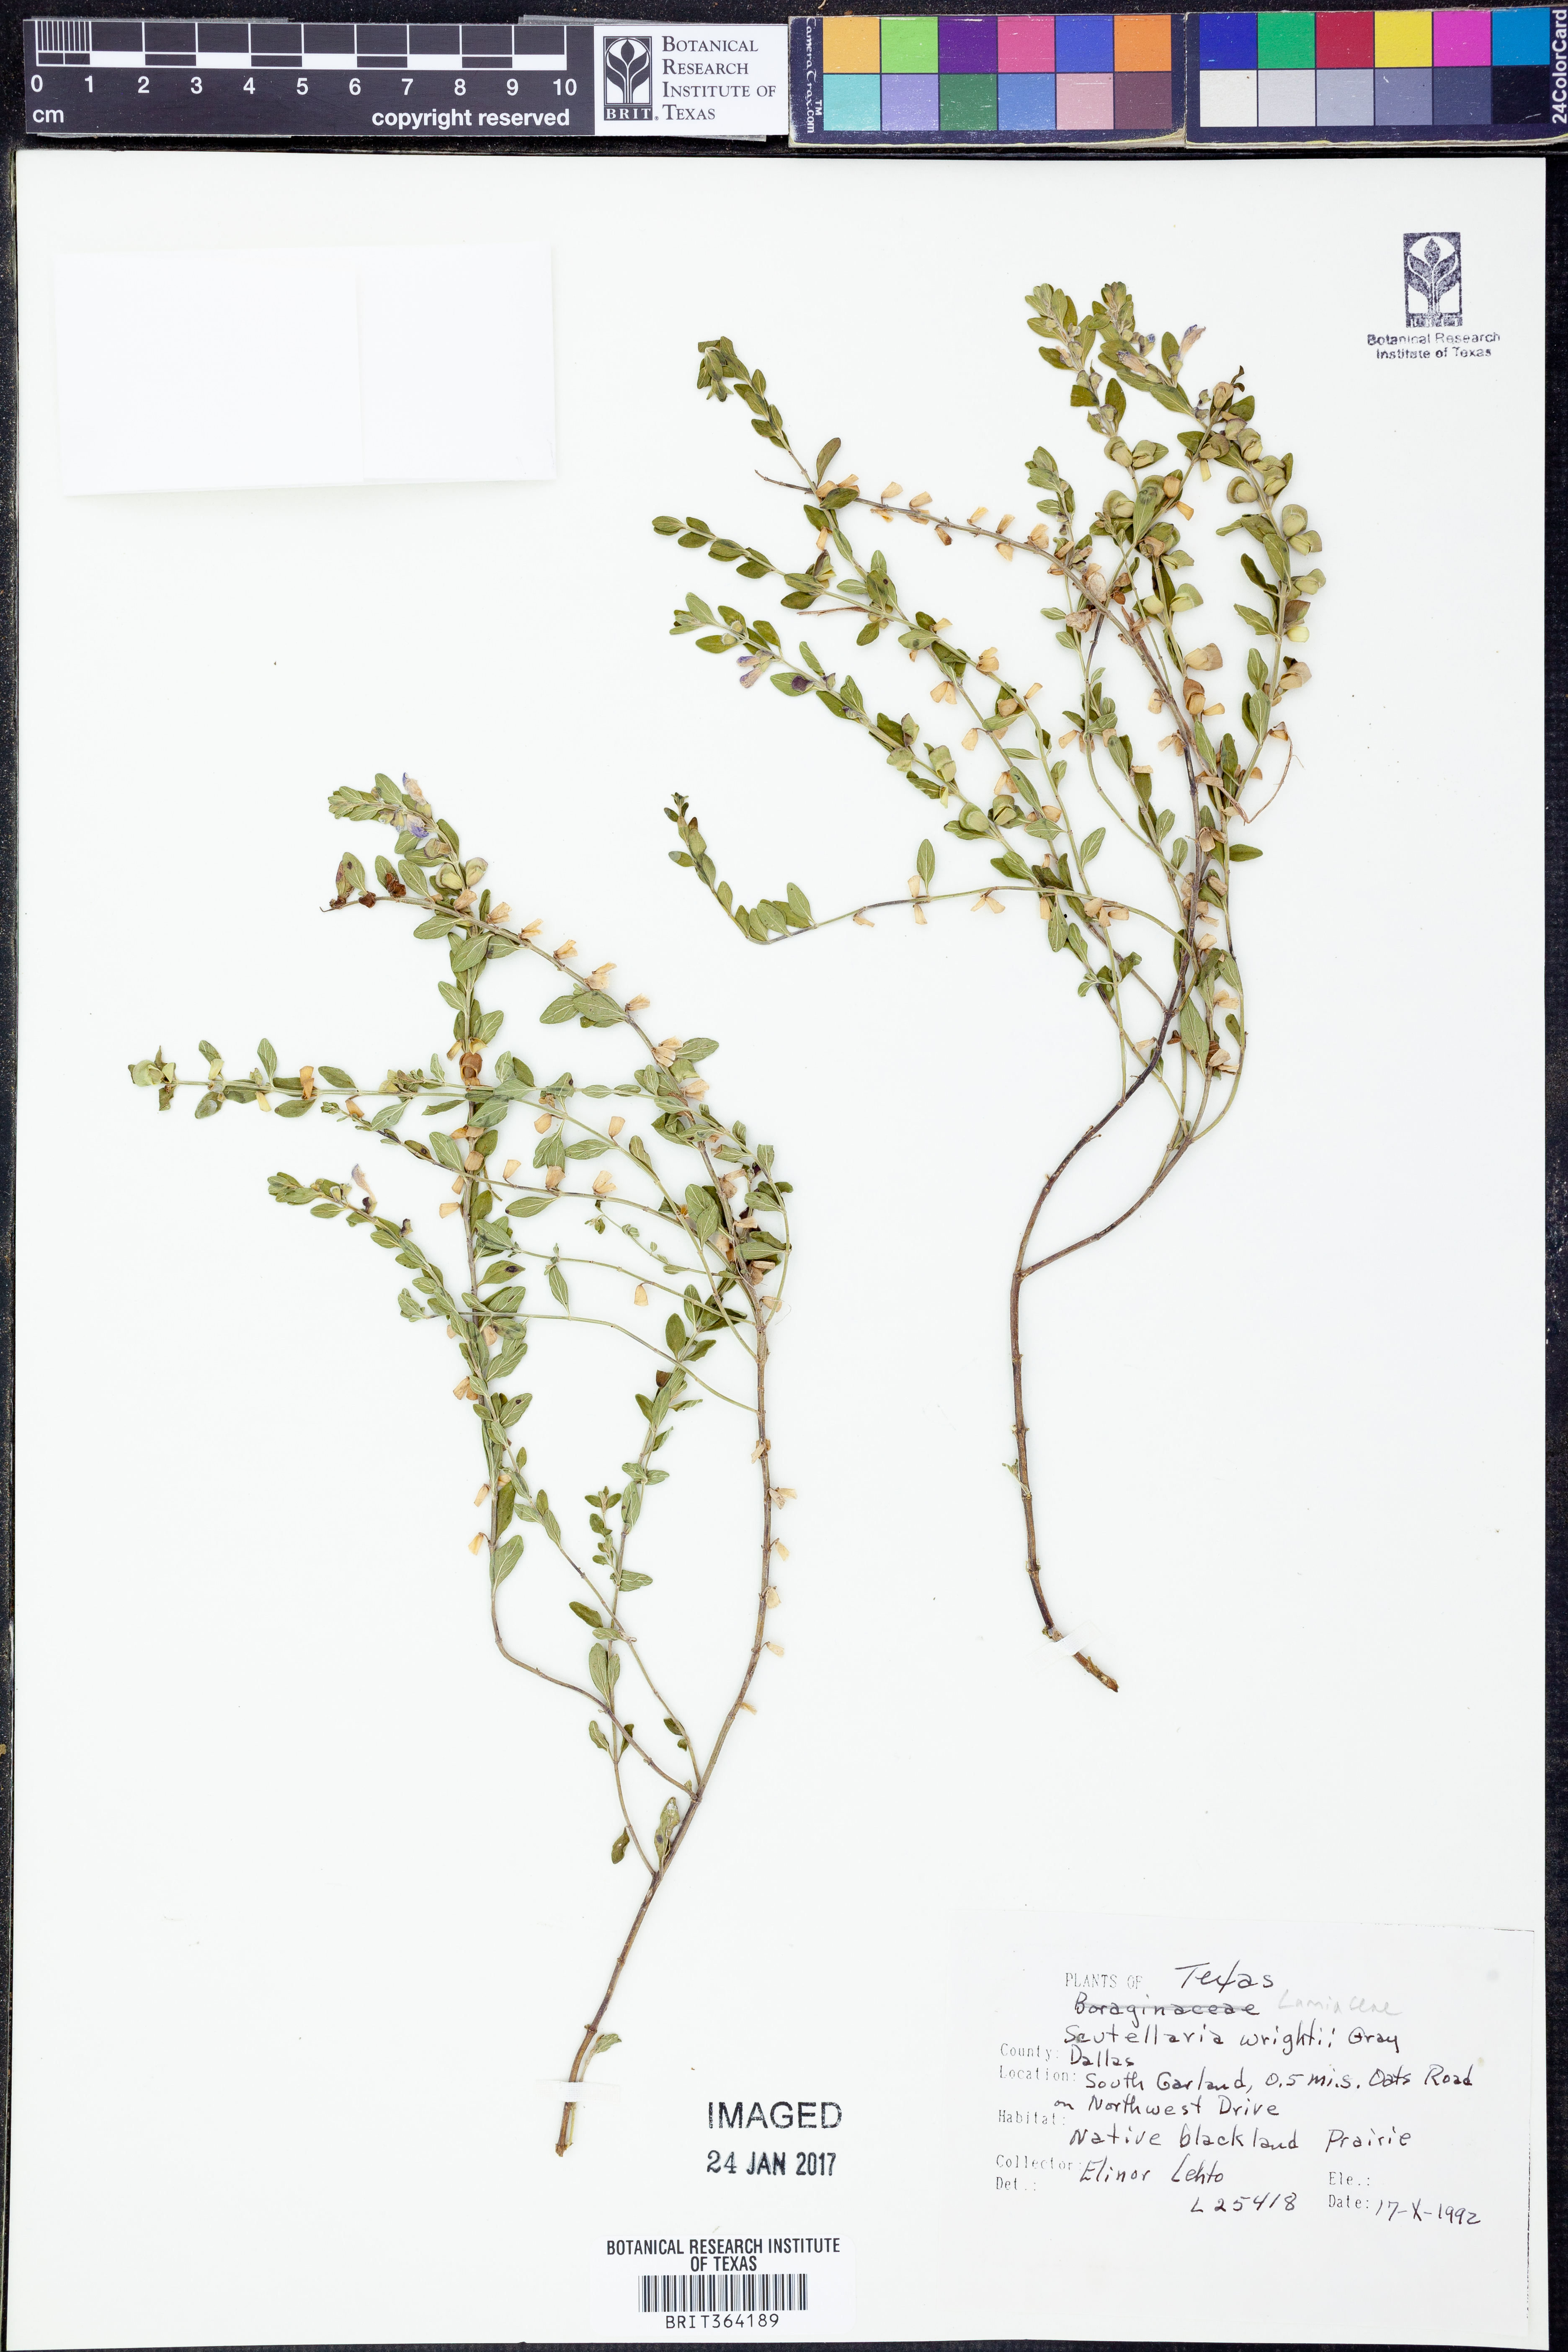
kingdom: Plantae
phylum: Tracheophyta
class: Magnoliopsida
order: Lamiales
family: Lamiaceae
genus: Scutellaria
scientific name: Scutellaria wrightii
